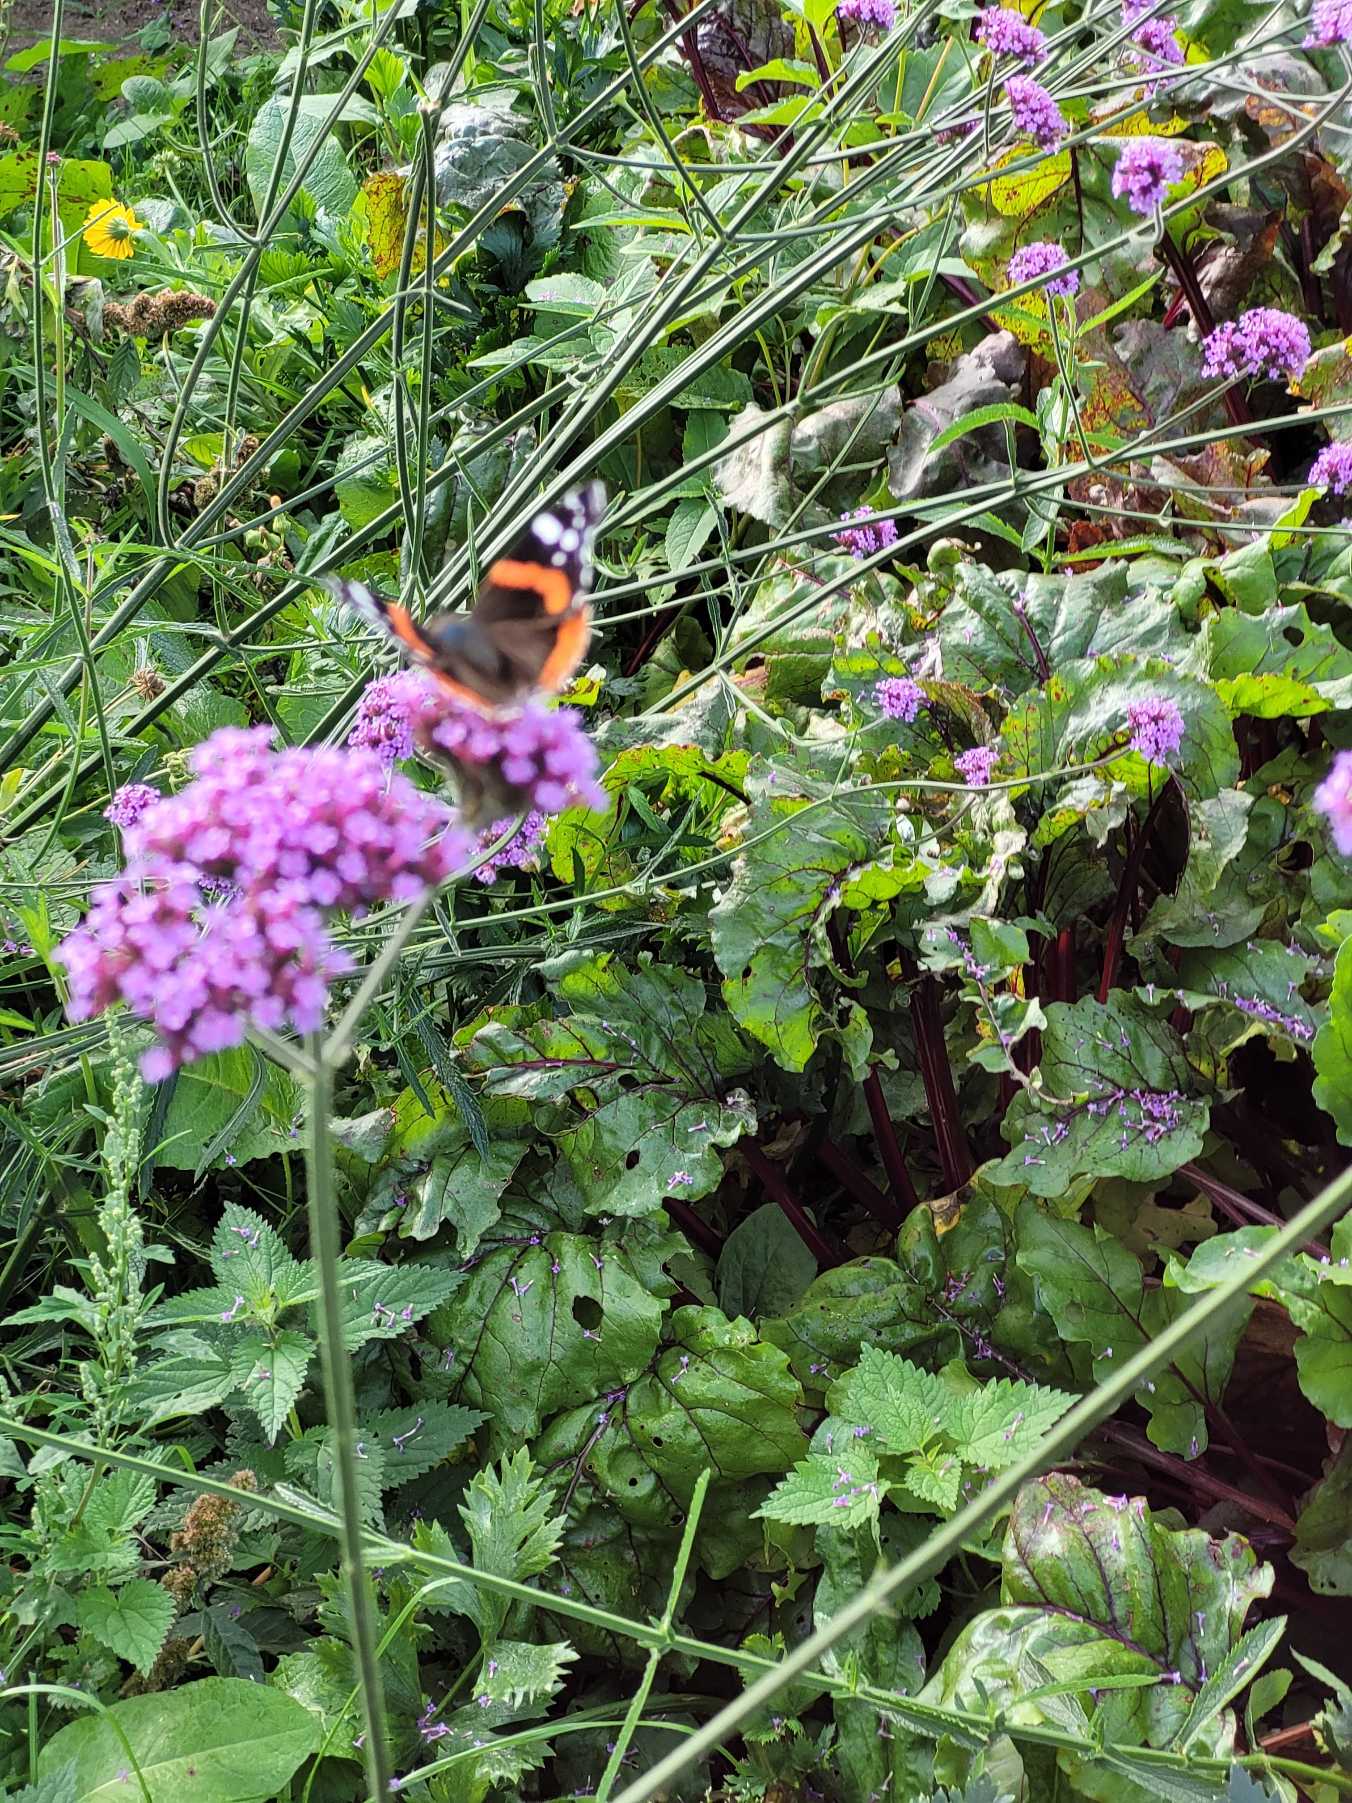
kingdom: Animalia
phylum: Arthropoda
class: Insecta
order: Lepidoptera
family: Nymphalidae
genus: Vanessa
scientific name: Vanessa atalanta
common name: Admiral
